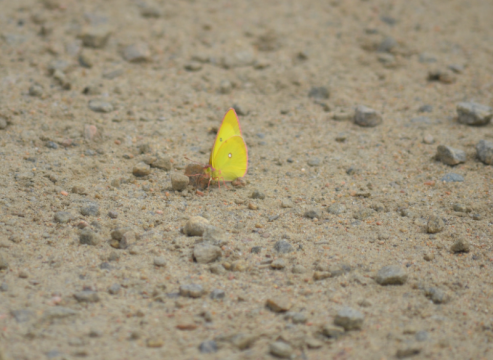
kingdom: Animalia
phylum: Arthropoda
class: Insecta
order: Lepidoptera
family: Pieridae
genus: Colias
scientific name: Colias philodice
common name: Clouded Sulphur
